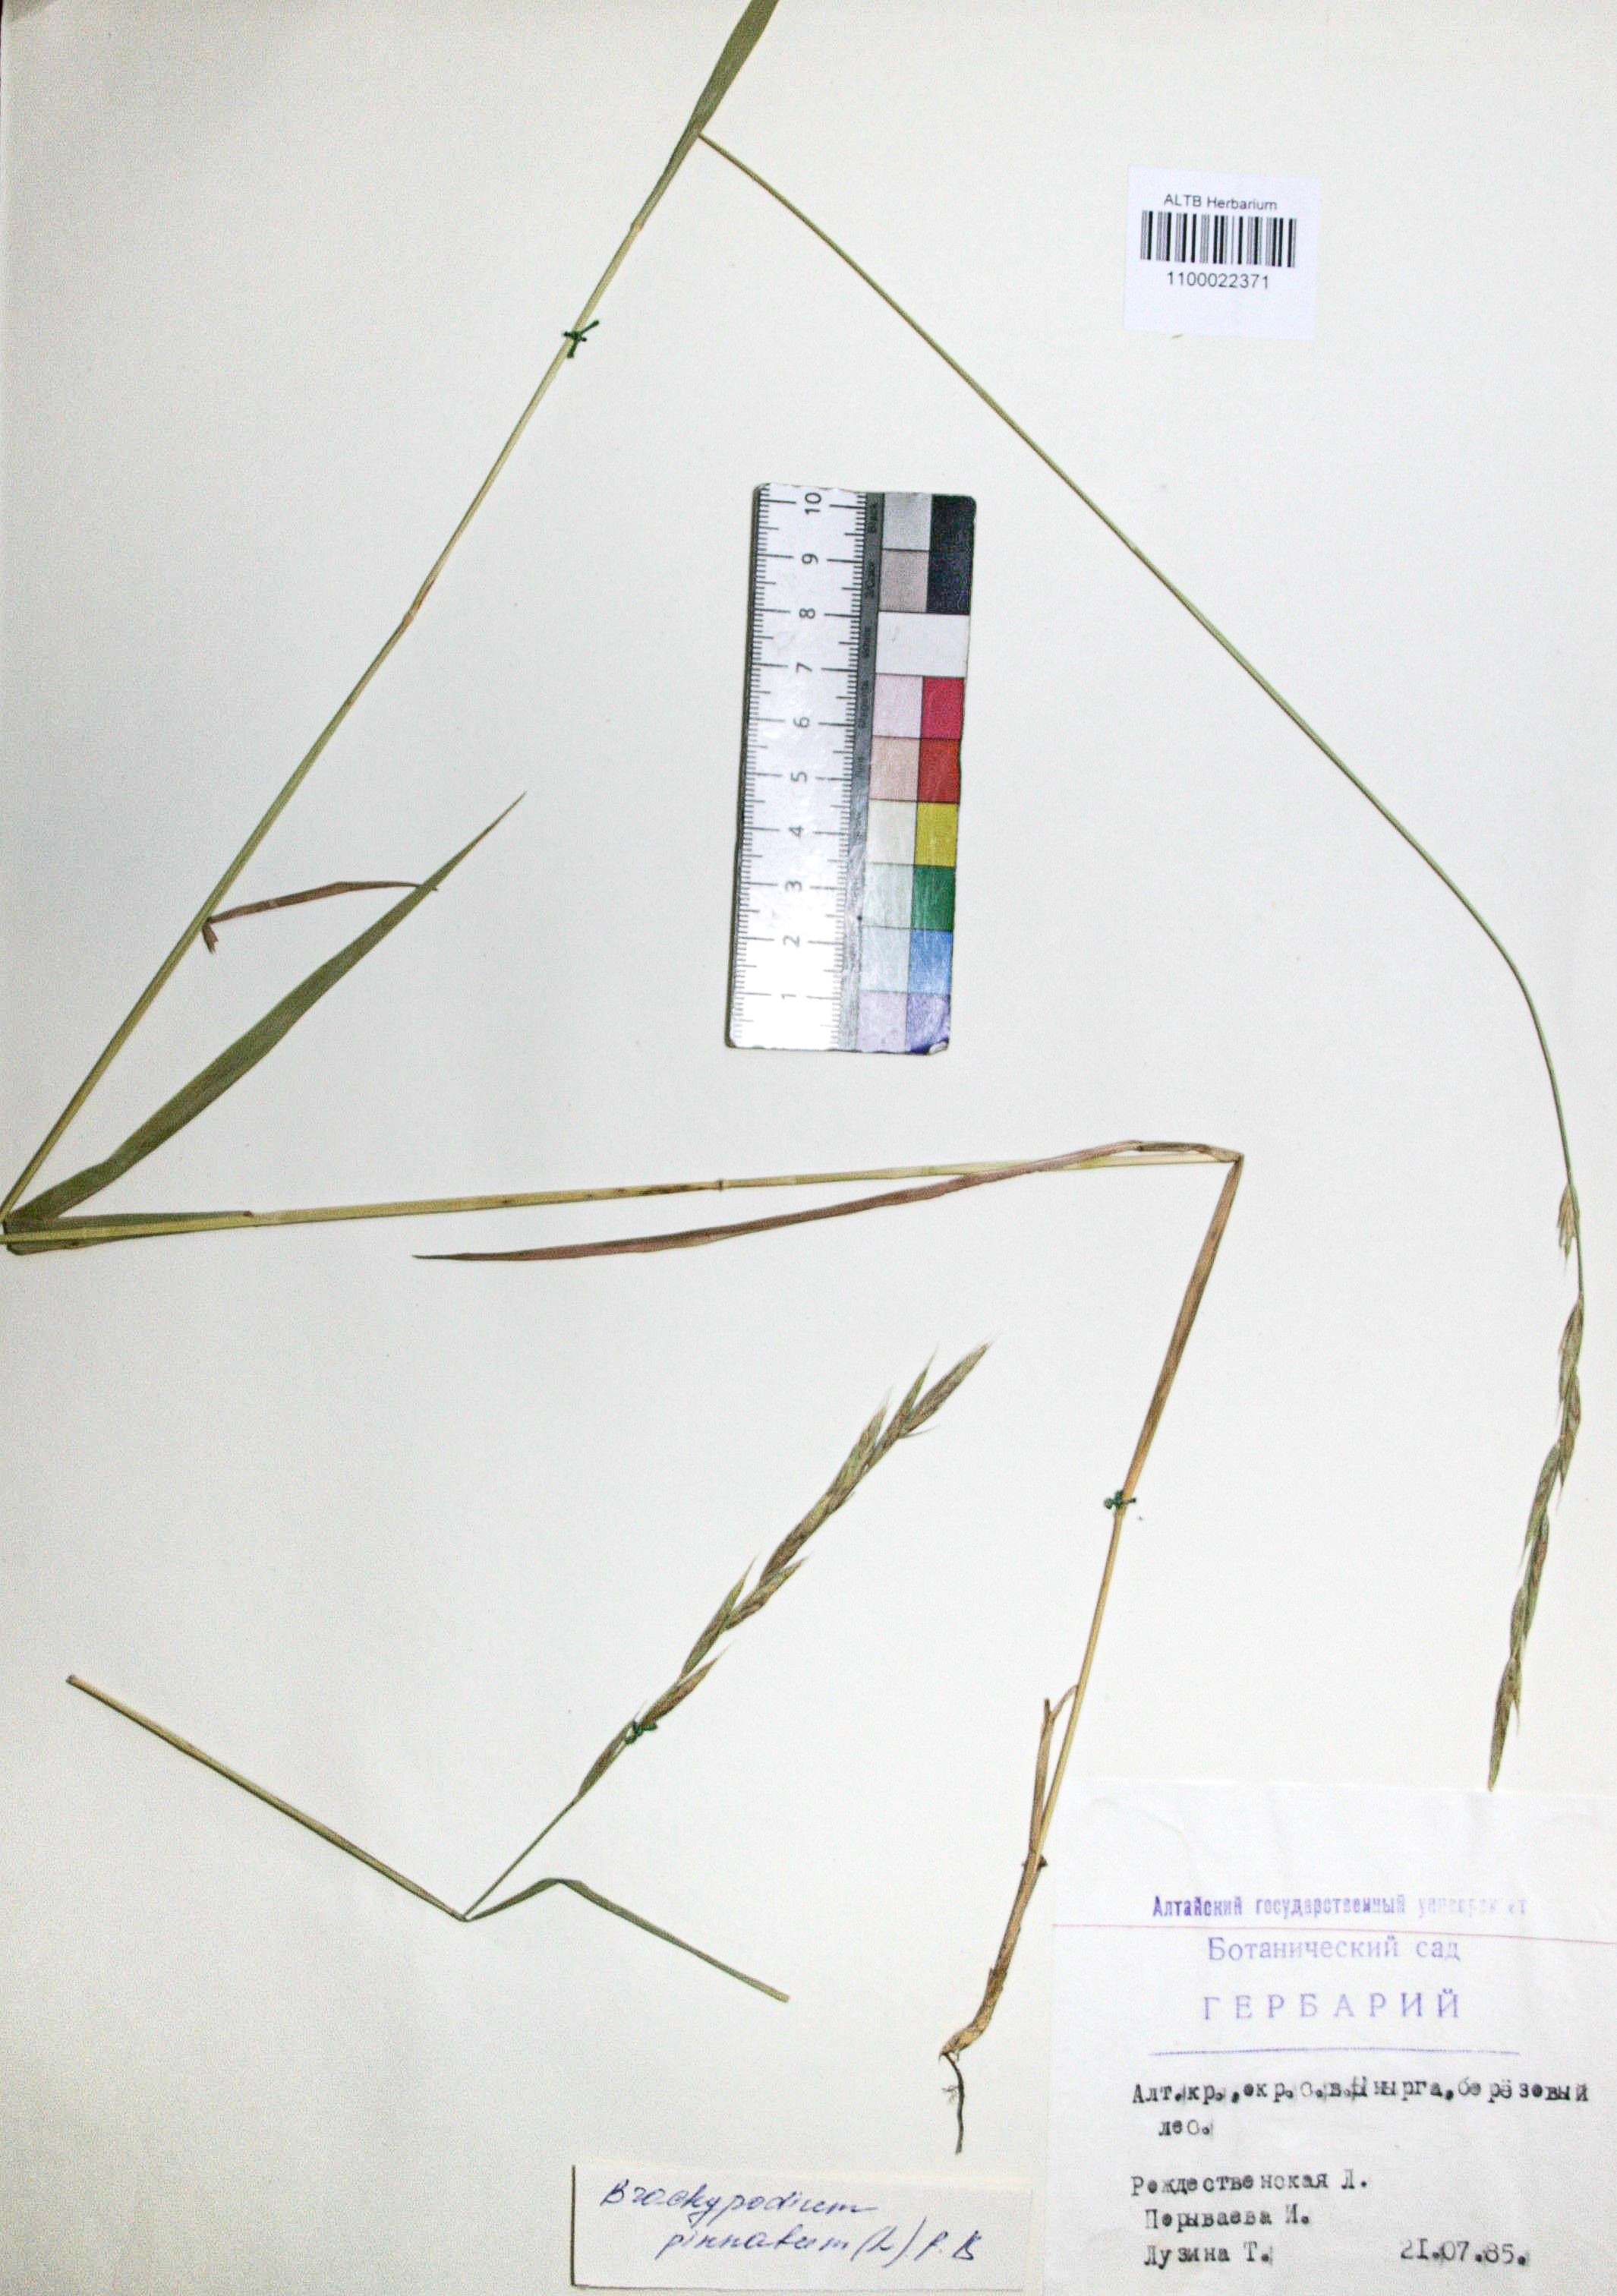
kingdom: Plantae
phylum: Tracheophyta
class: Liliopsida
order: Poales
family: Poaceae
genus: Brachypodium
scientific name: Brachypodium pinnatum
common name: Tor grass
